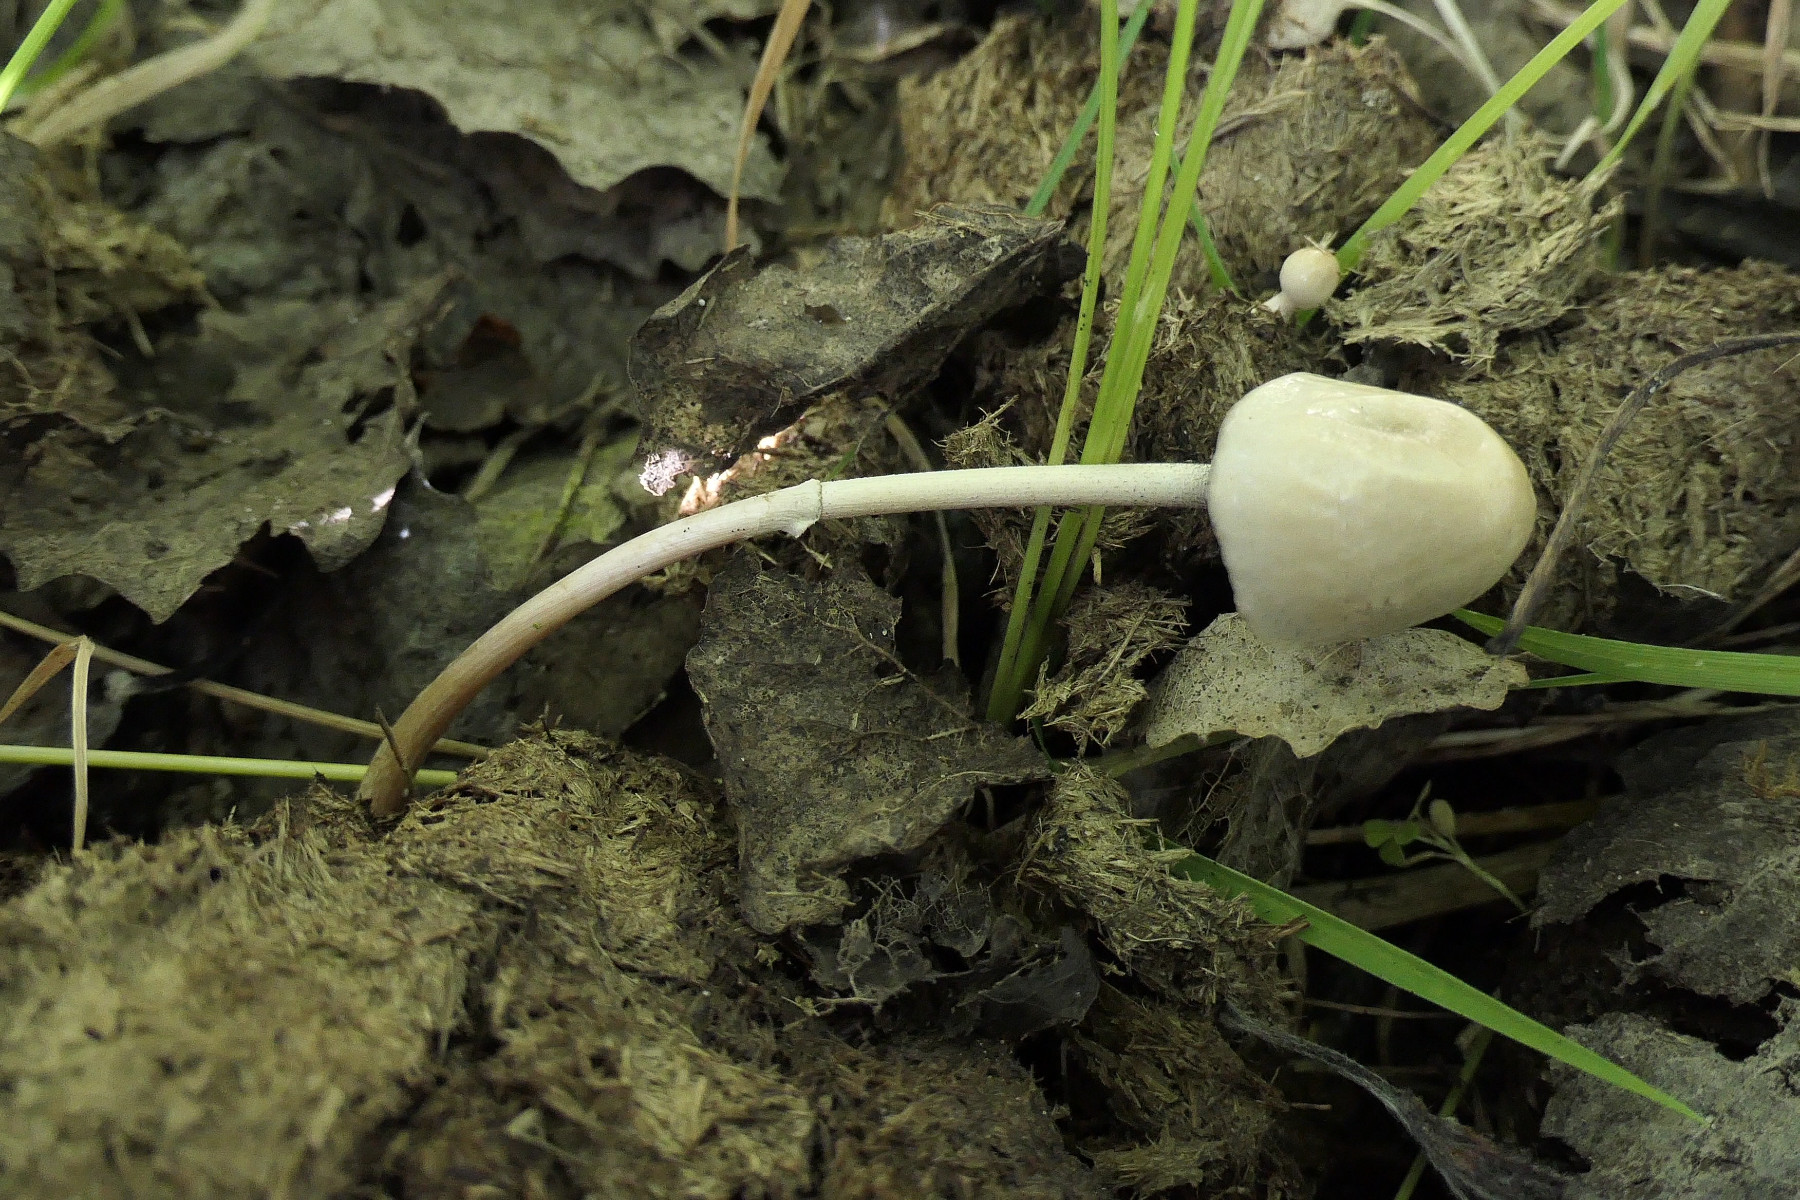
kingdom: Fungi
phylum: Basidiomycota
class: Agaricomycetes
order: Agaricales
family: Bolbitiaceae
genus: Panaeolus
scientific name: Panaeolus semiovatus
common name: ring-glanshat
